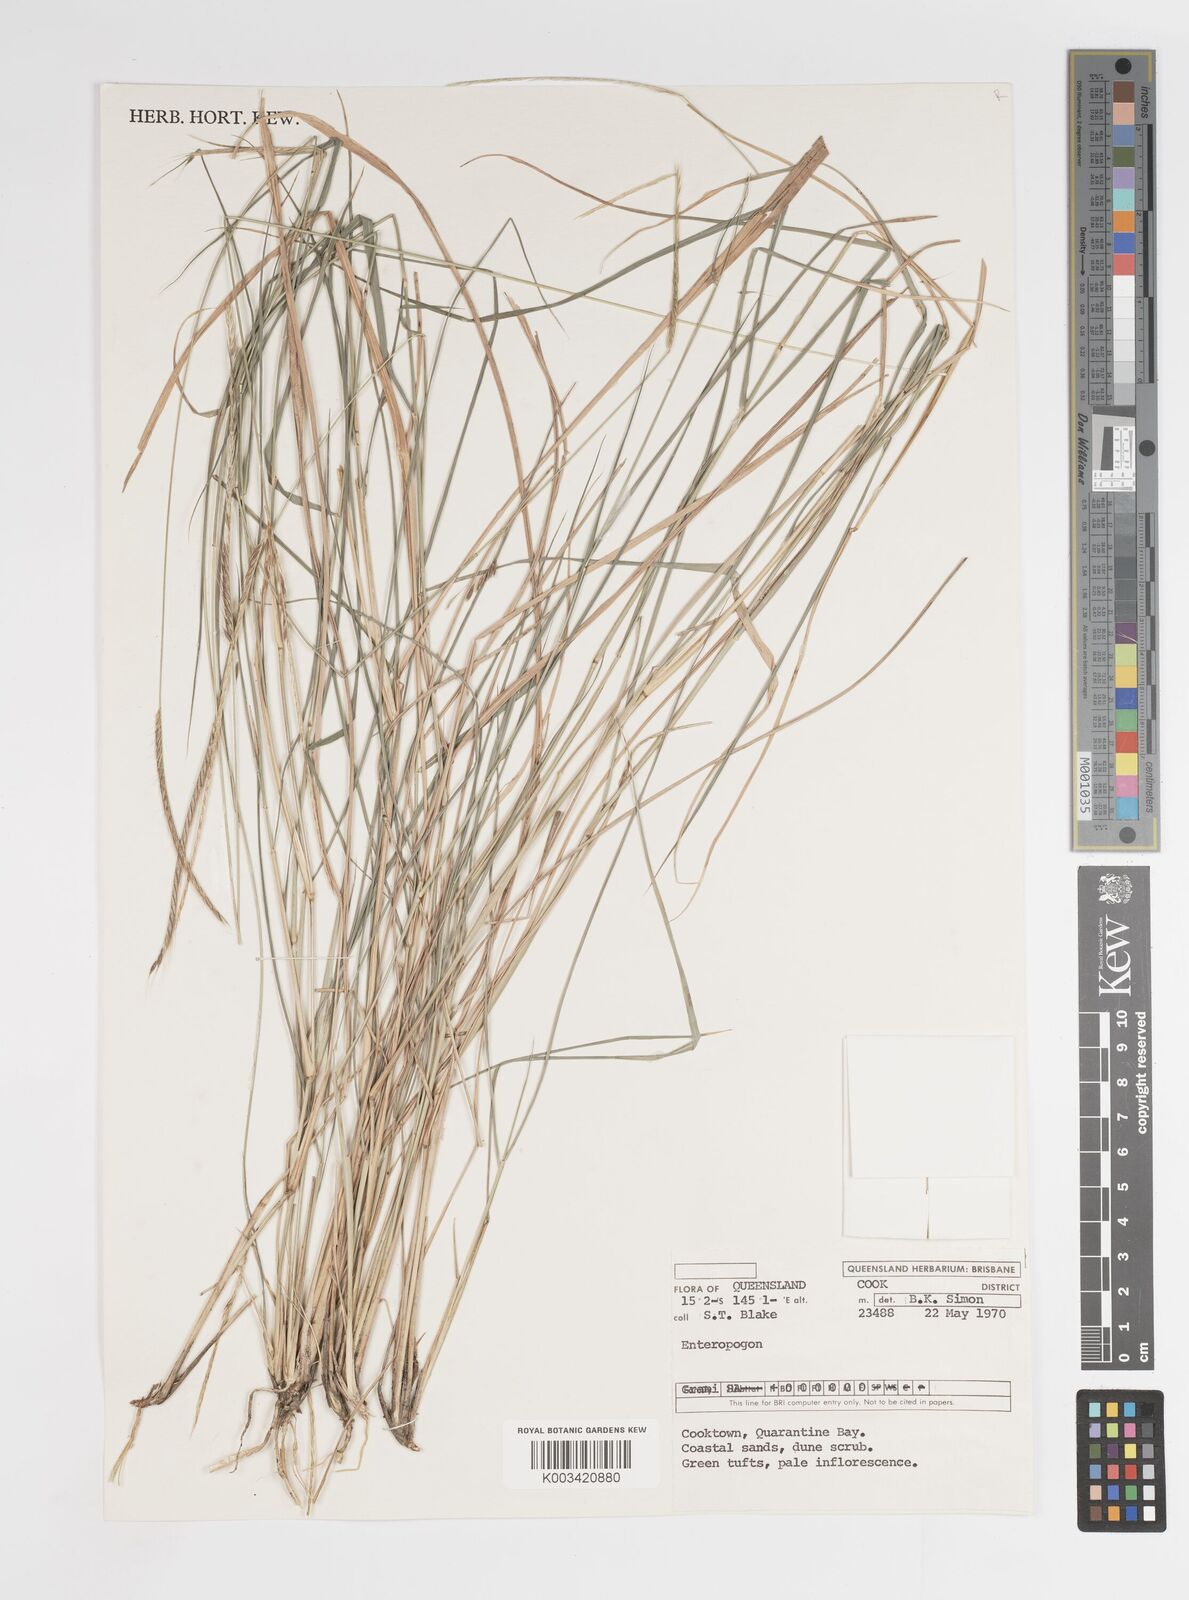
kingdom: Plantae
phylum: Tracheophyta
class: Liliopsida
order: Poales
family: Poaceae
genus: Enteropogon
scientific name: Enteropogon dolichostachyus
